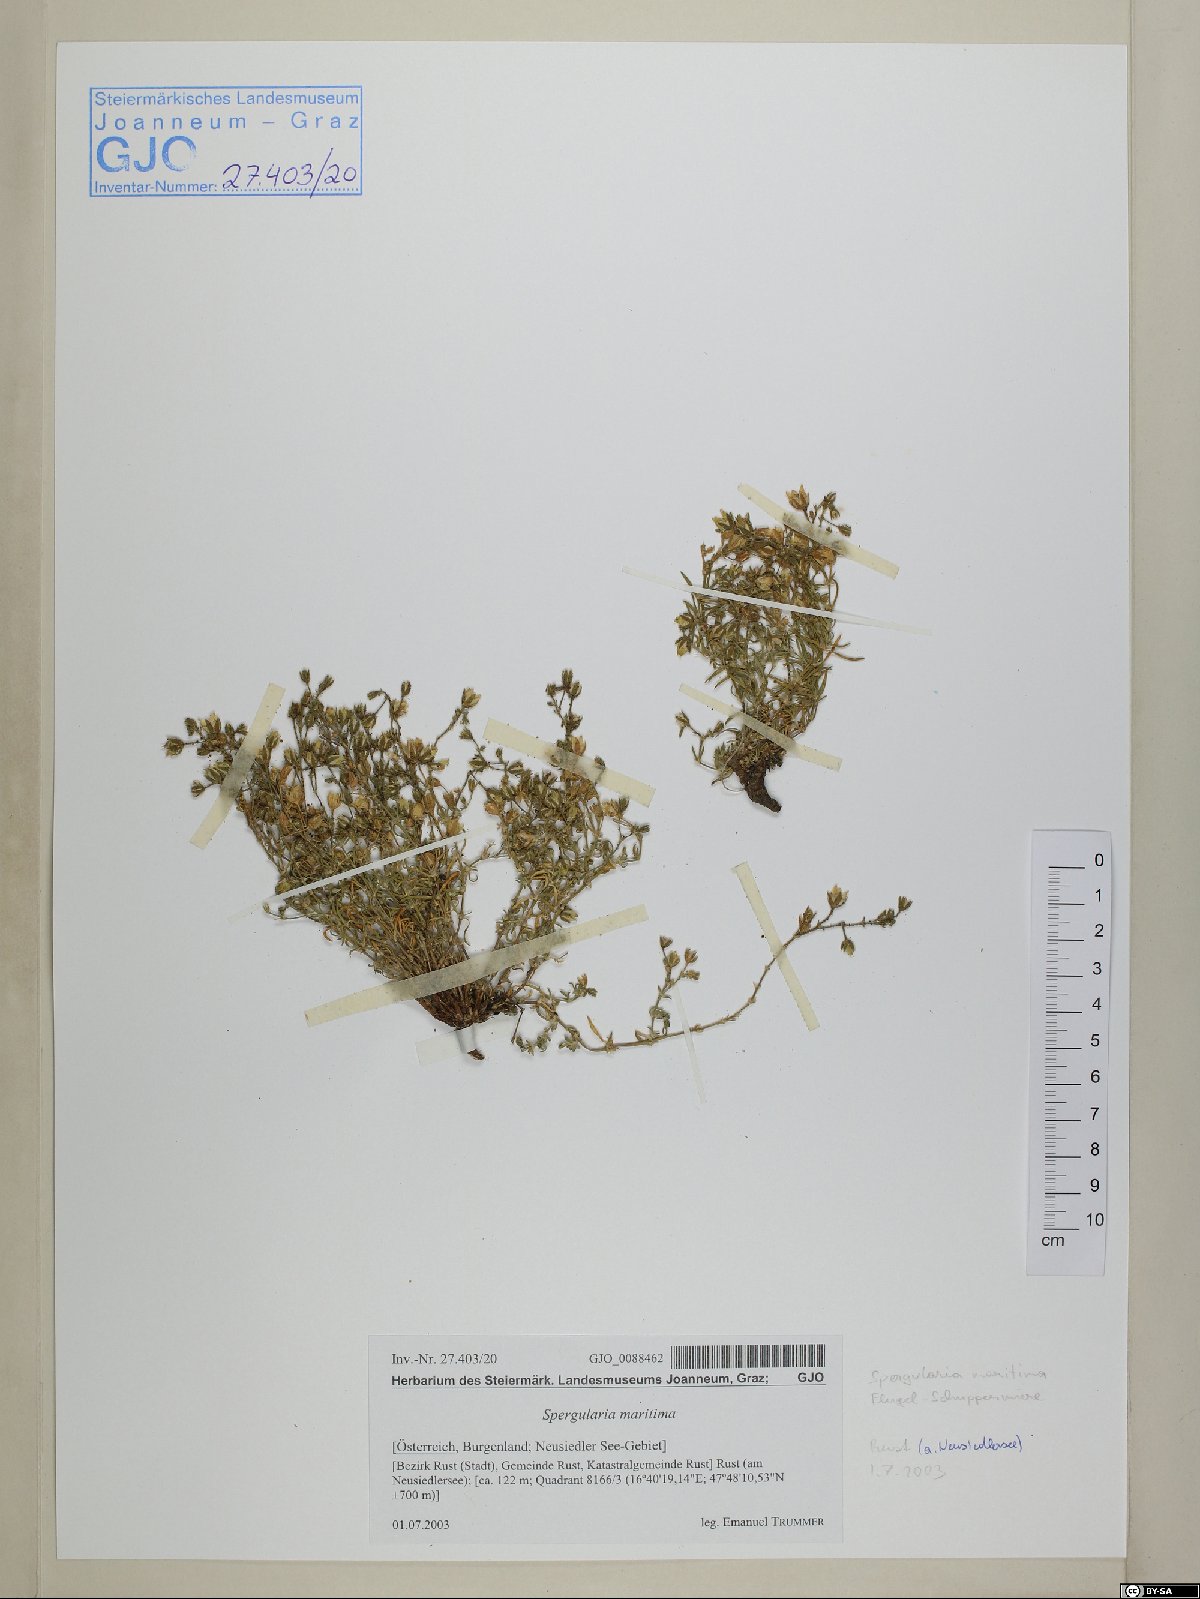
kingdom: Plantae
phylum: Tracheophyta
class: Magnoliopsida
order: Caryophyllales
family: Caryophyllaceae
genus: Spergularia
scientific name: Spergularia media
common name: Greater sea-spurrey
